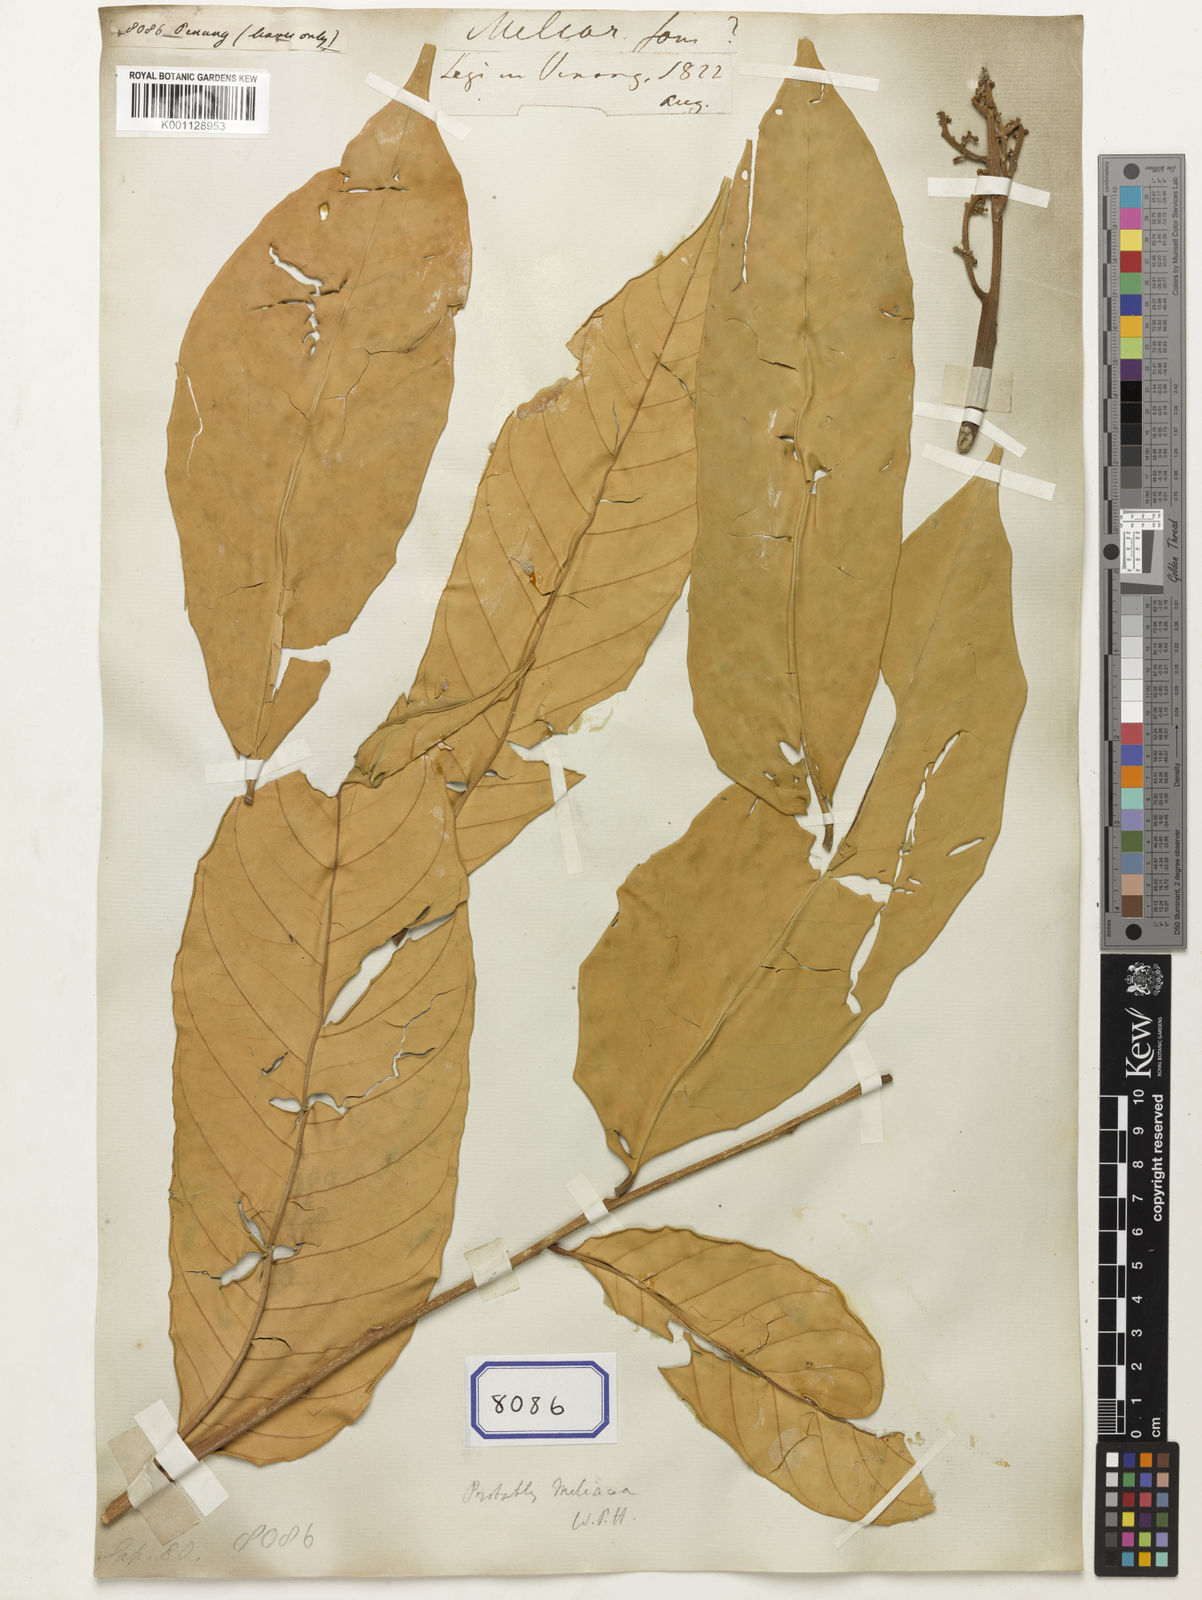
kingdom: Plantae
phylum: Tracheophyta
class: Magnoliopsida
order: Sapindales
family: Sapindaceae
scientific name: Sapindaceae
